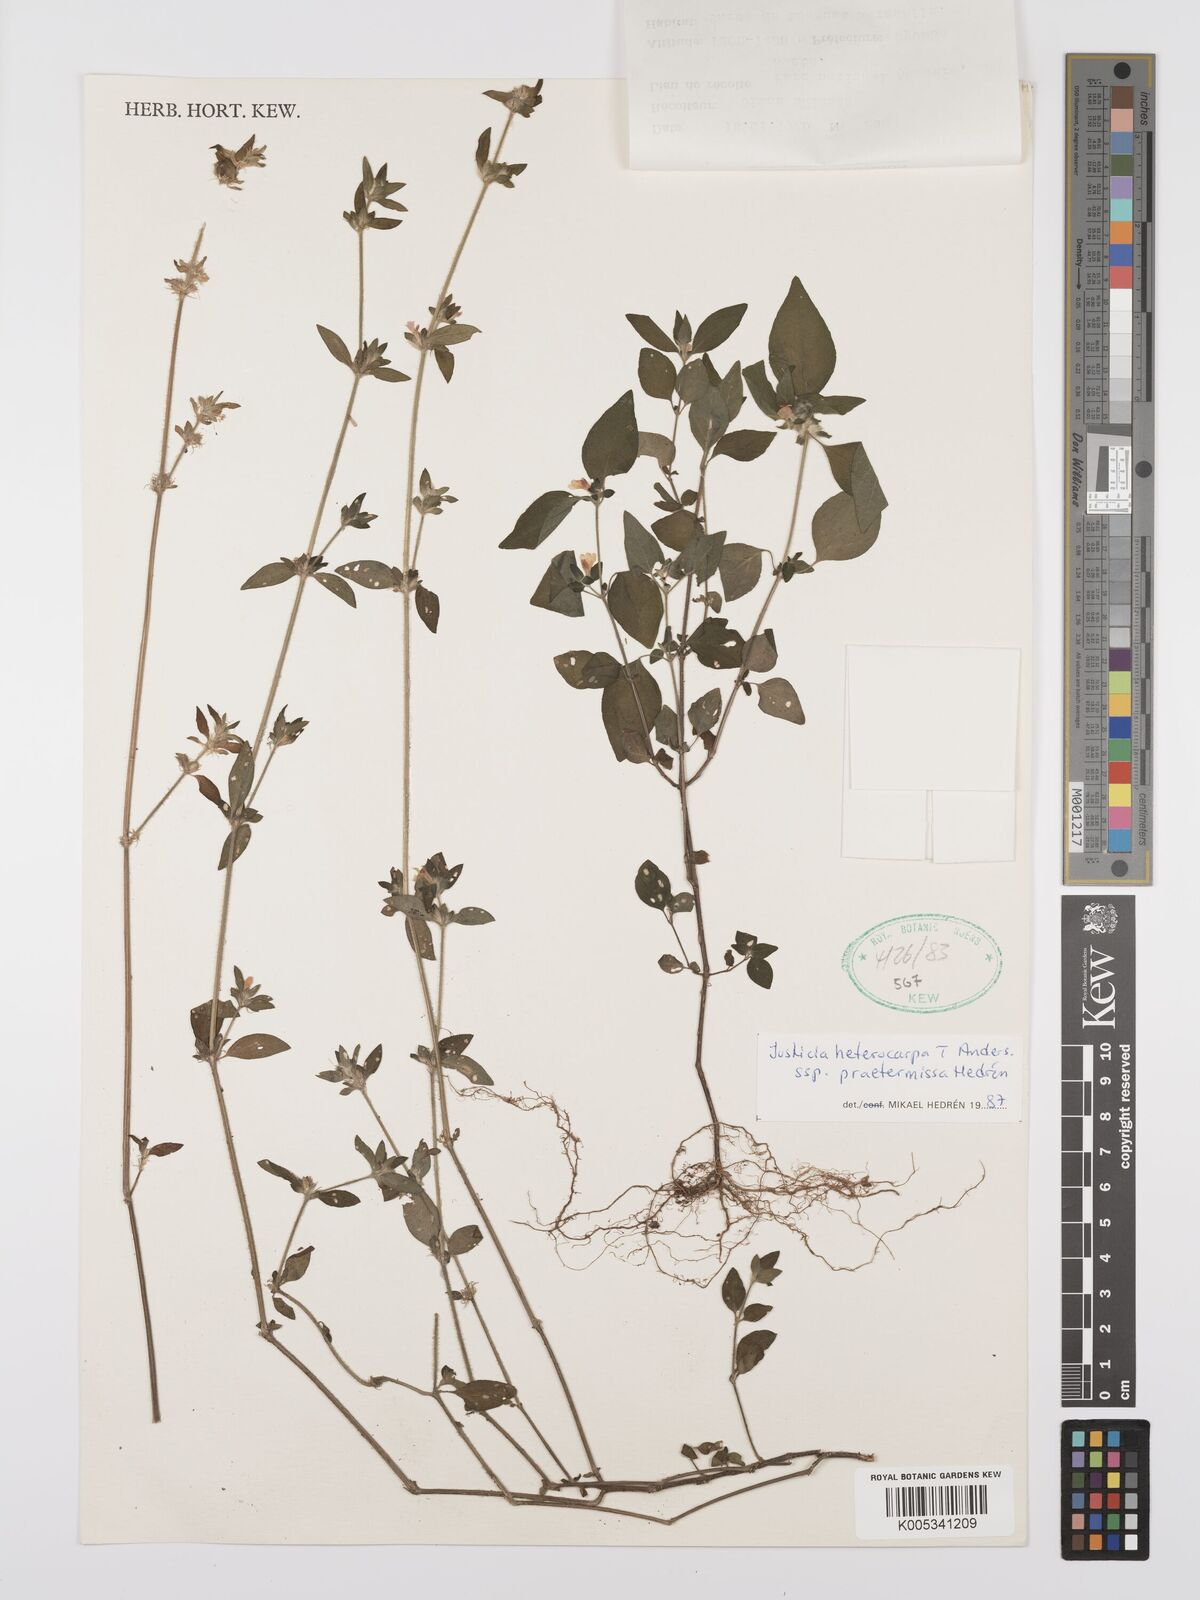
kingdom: Plantae
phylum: Tracheophyta
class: Magnoliopsida
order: Lamiales
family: Acanthaceae
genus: Justicia
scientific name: Justicia heterocarpa
